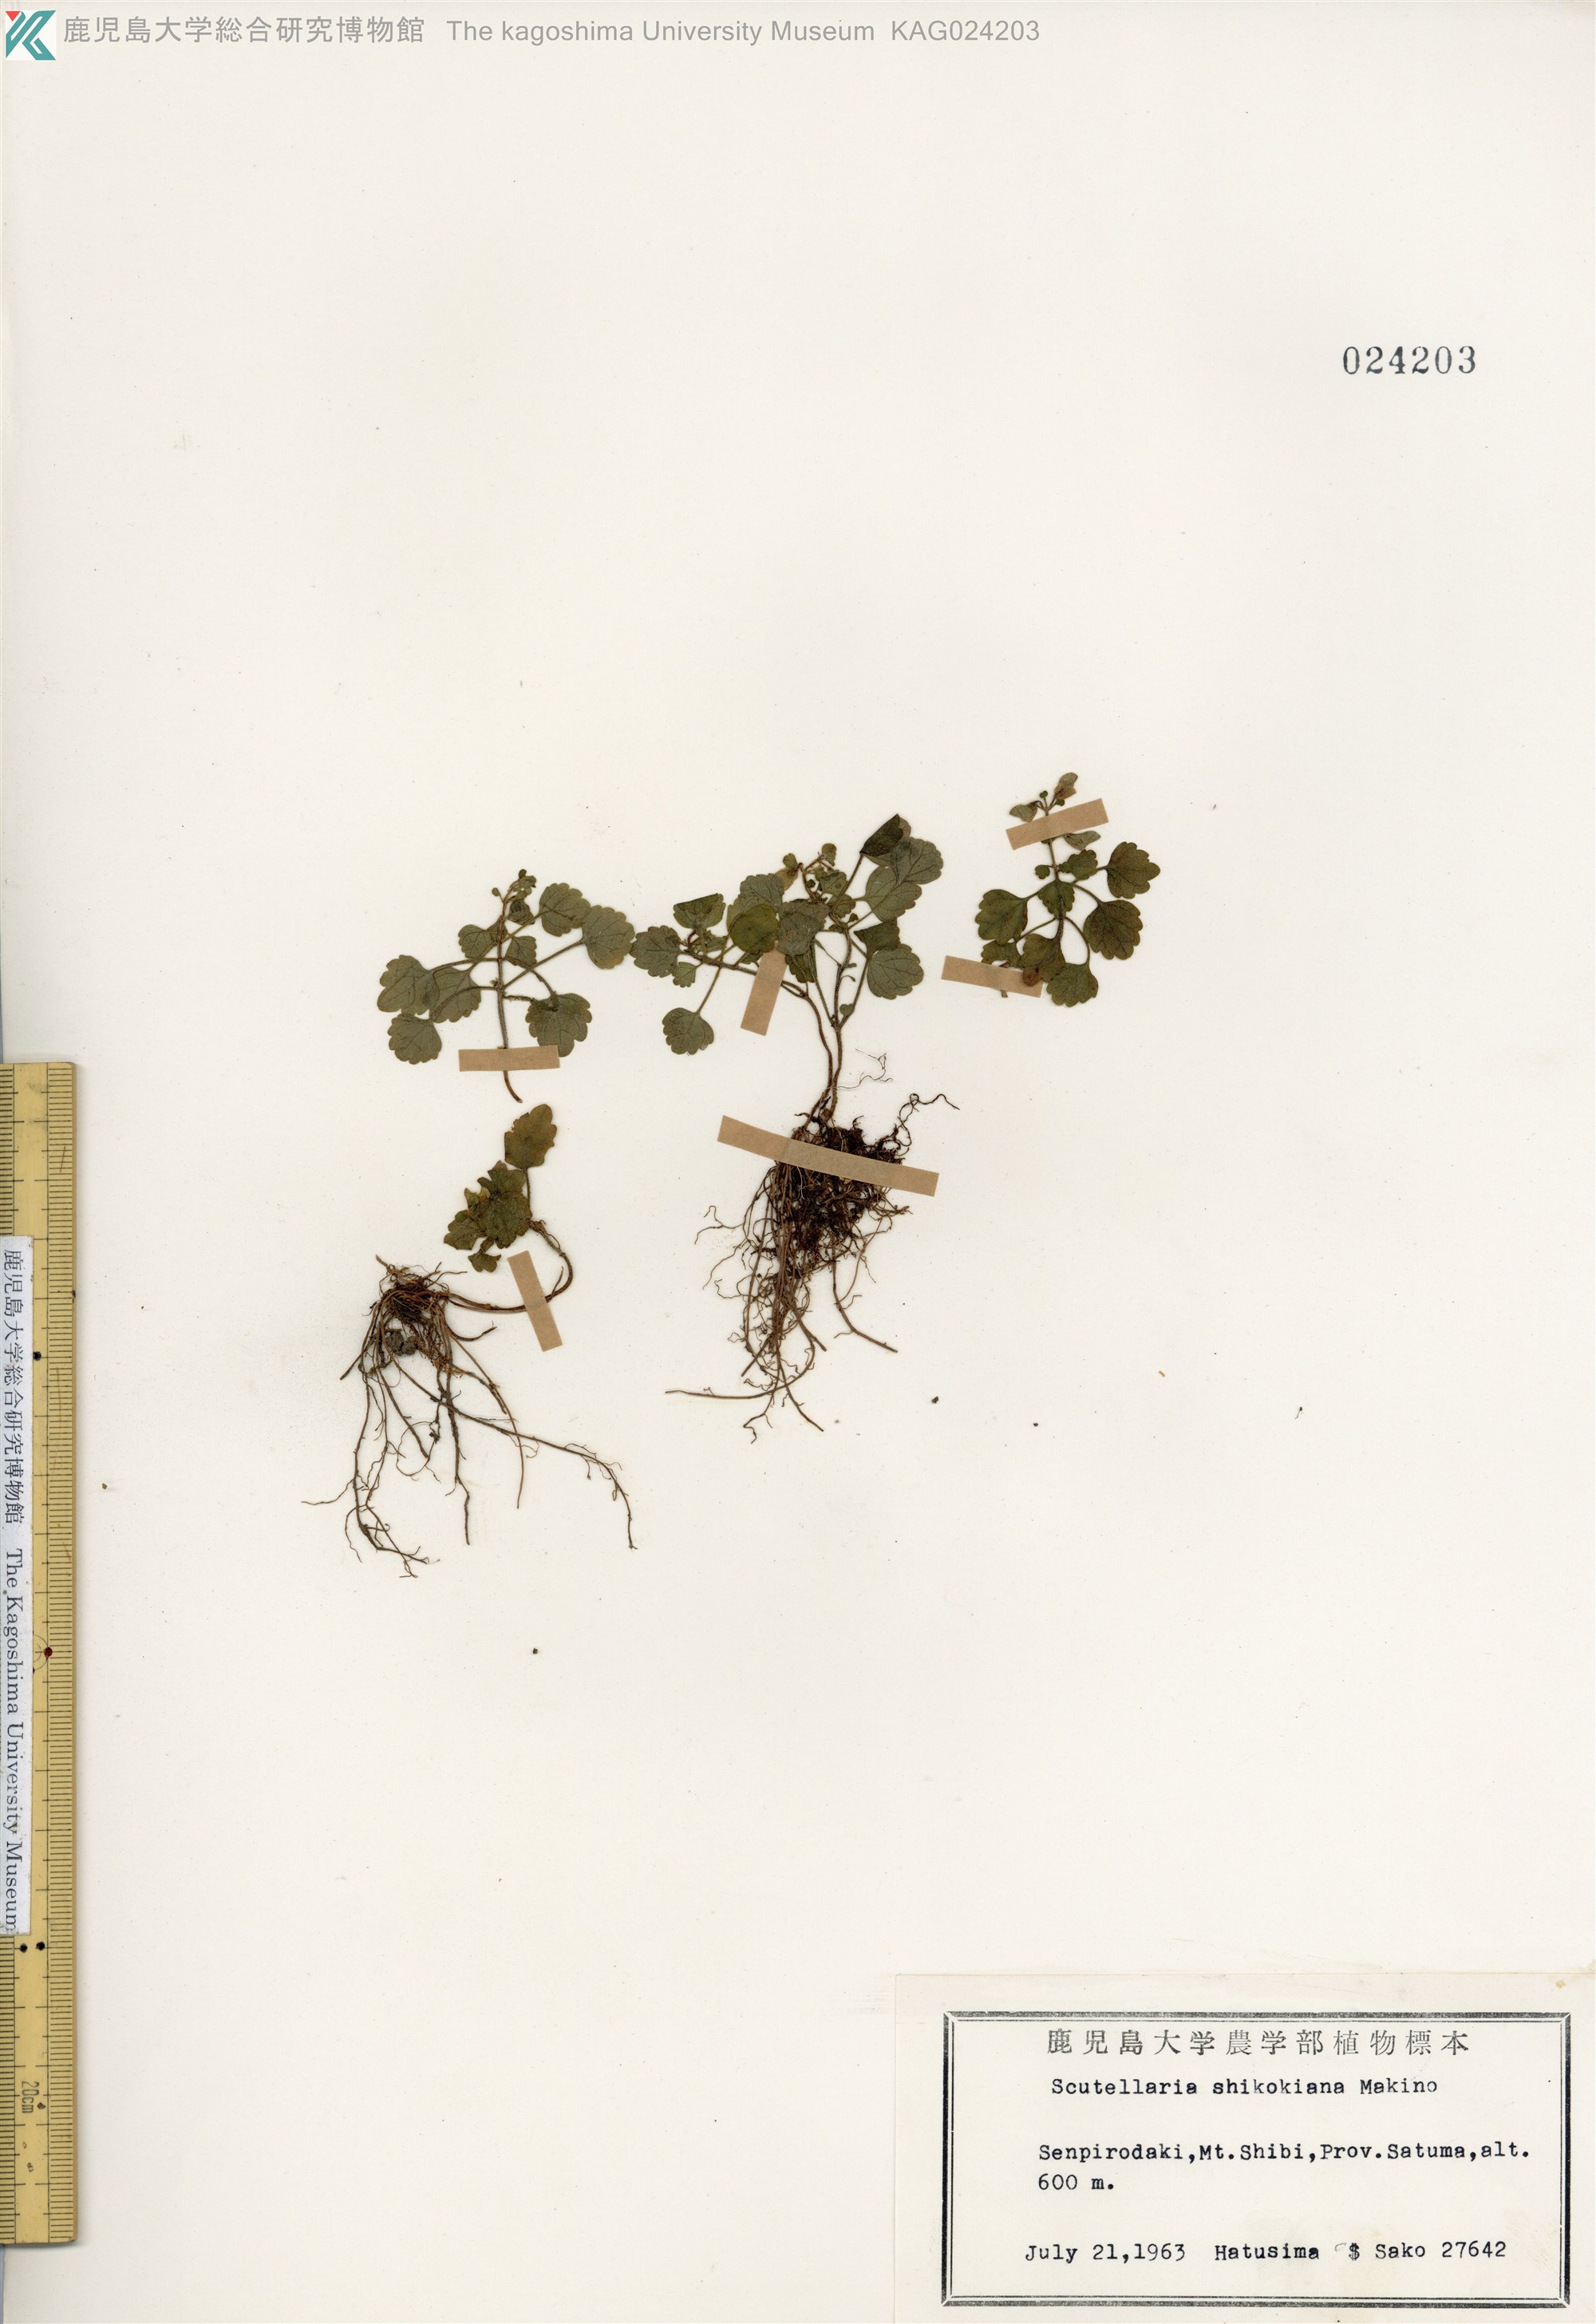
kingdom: Plantae
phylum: Tracheophyta
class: Magnoliopsida
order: Lamiales
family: Lamiaceae
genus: Scutellaria
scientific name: Scutellaria laeteviolacea
